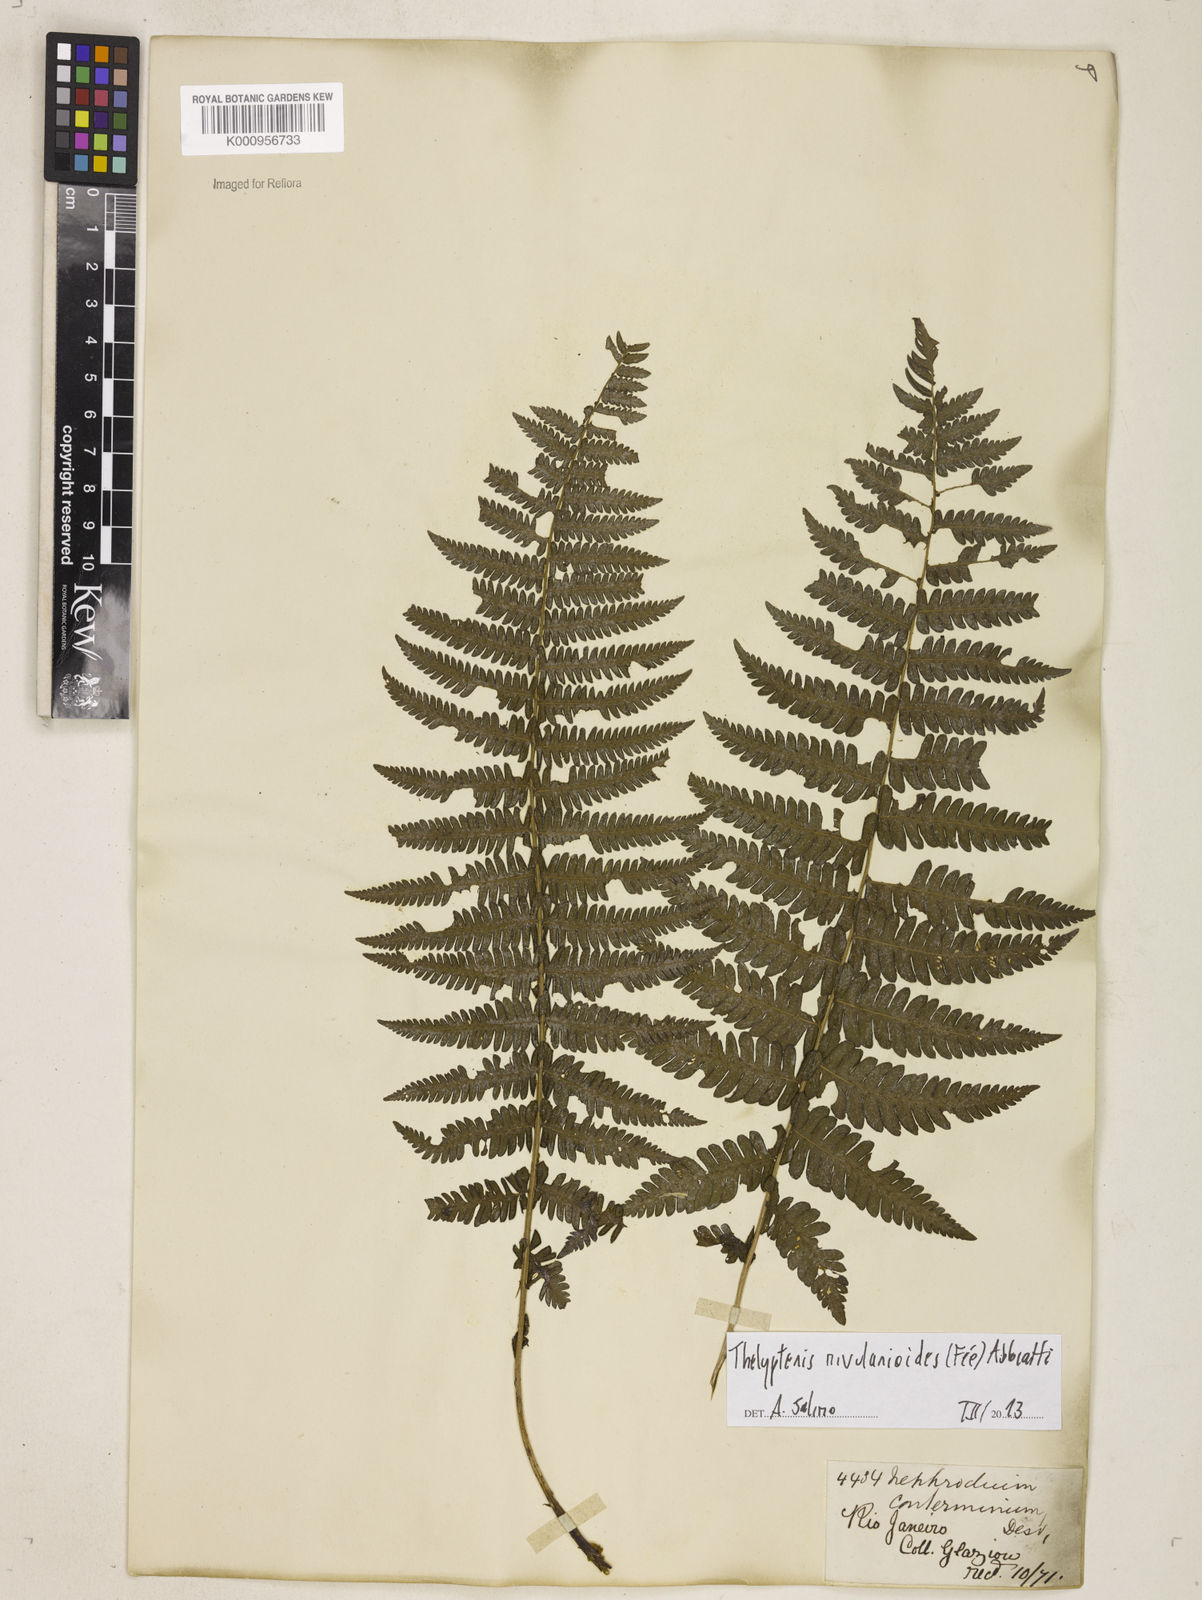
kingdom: Plantae
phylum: Tracheophyta
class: Polypodiopsida
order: Polypodiales
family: Thelypteridaceae
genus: Amauropelta
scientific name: Amauropelta rivularioides
